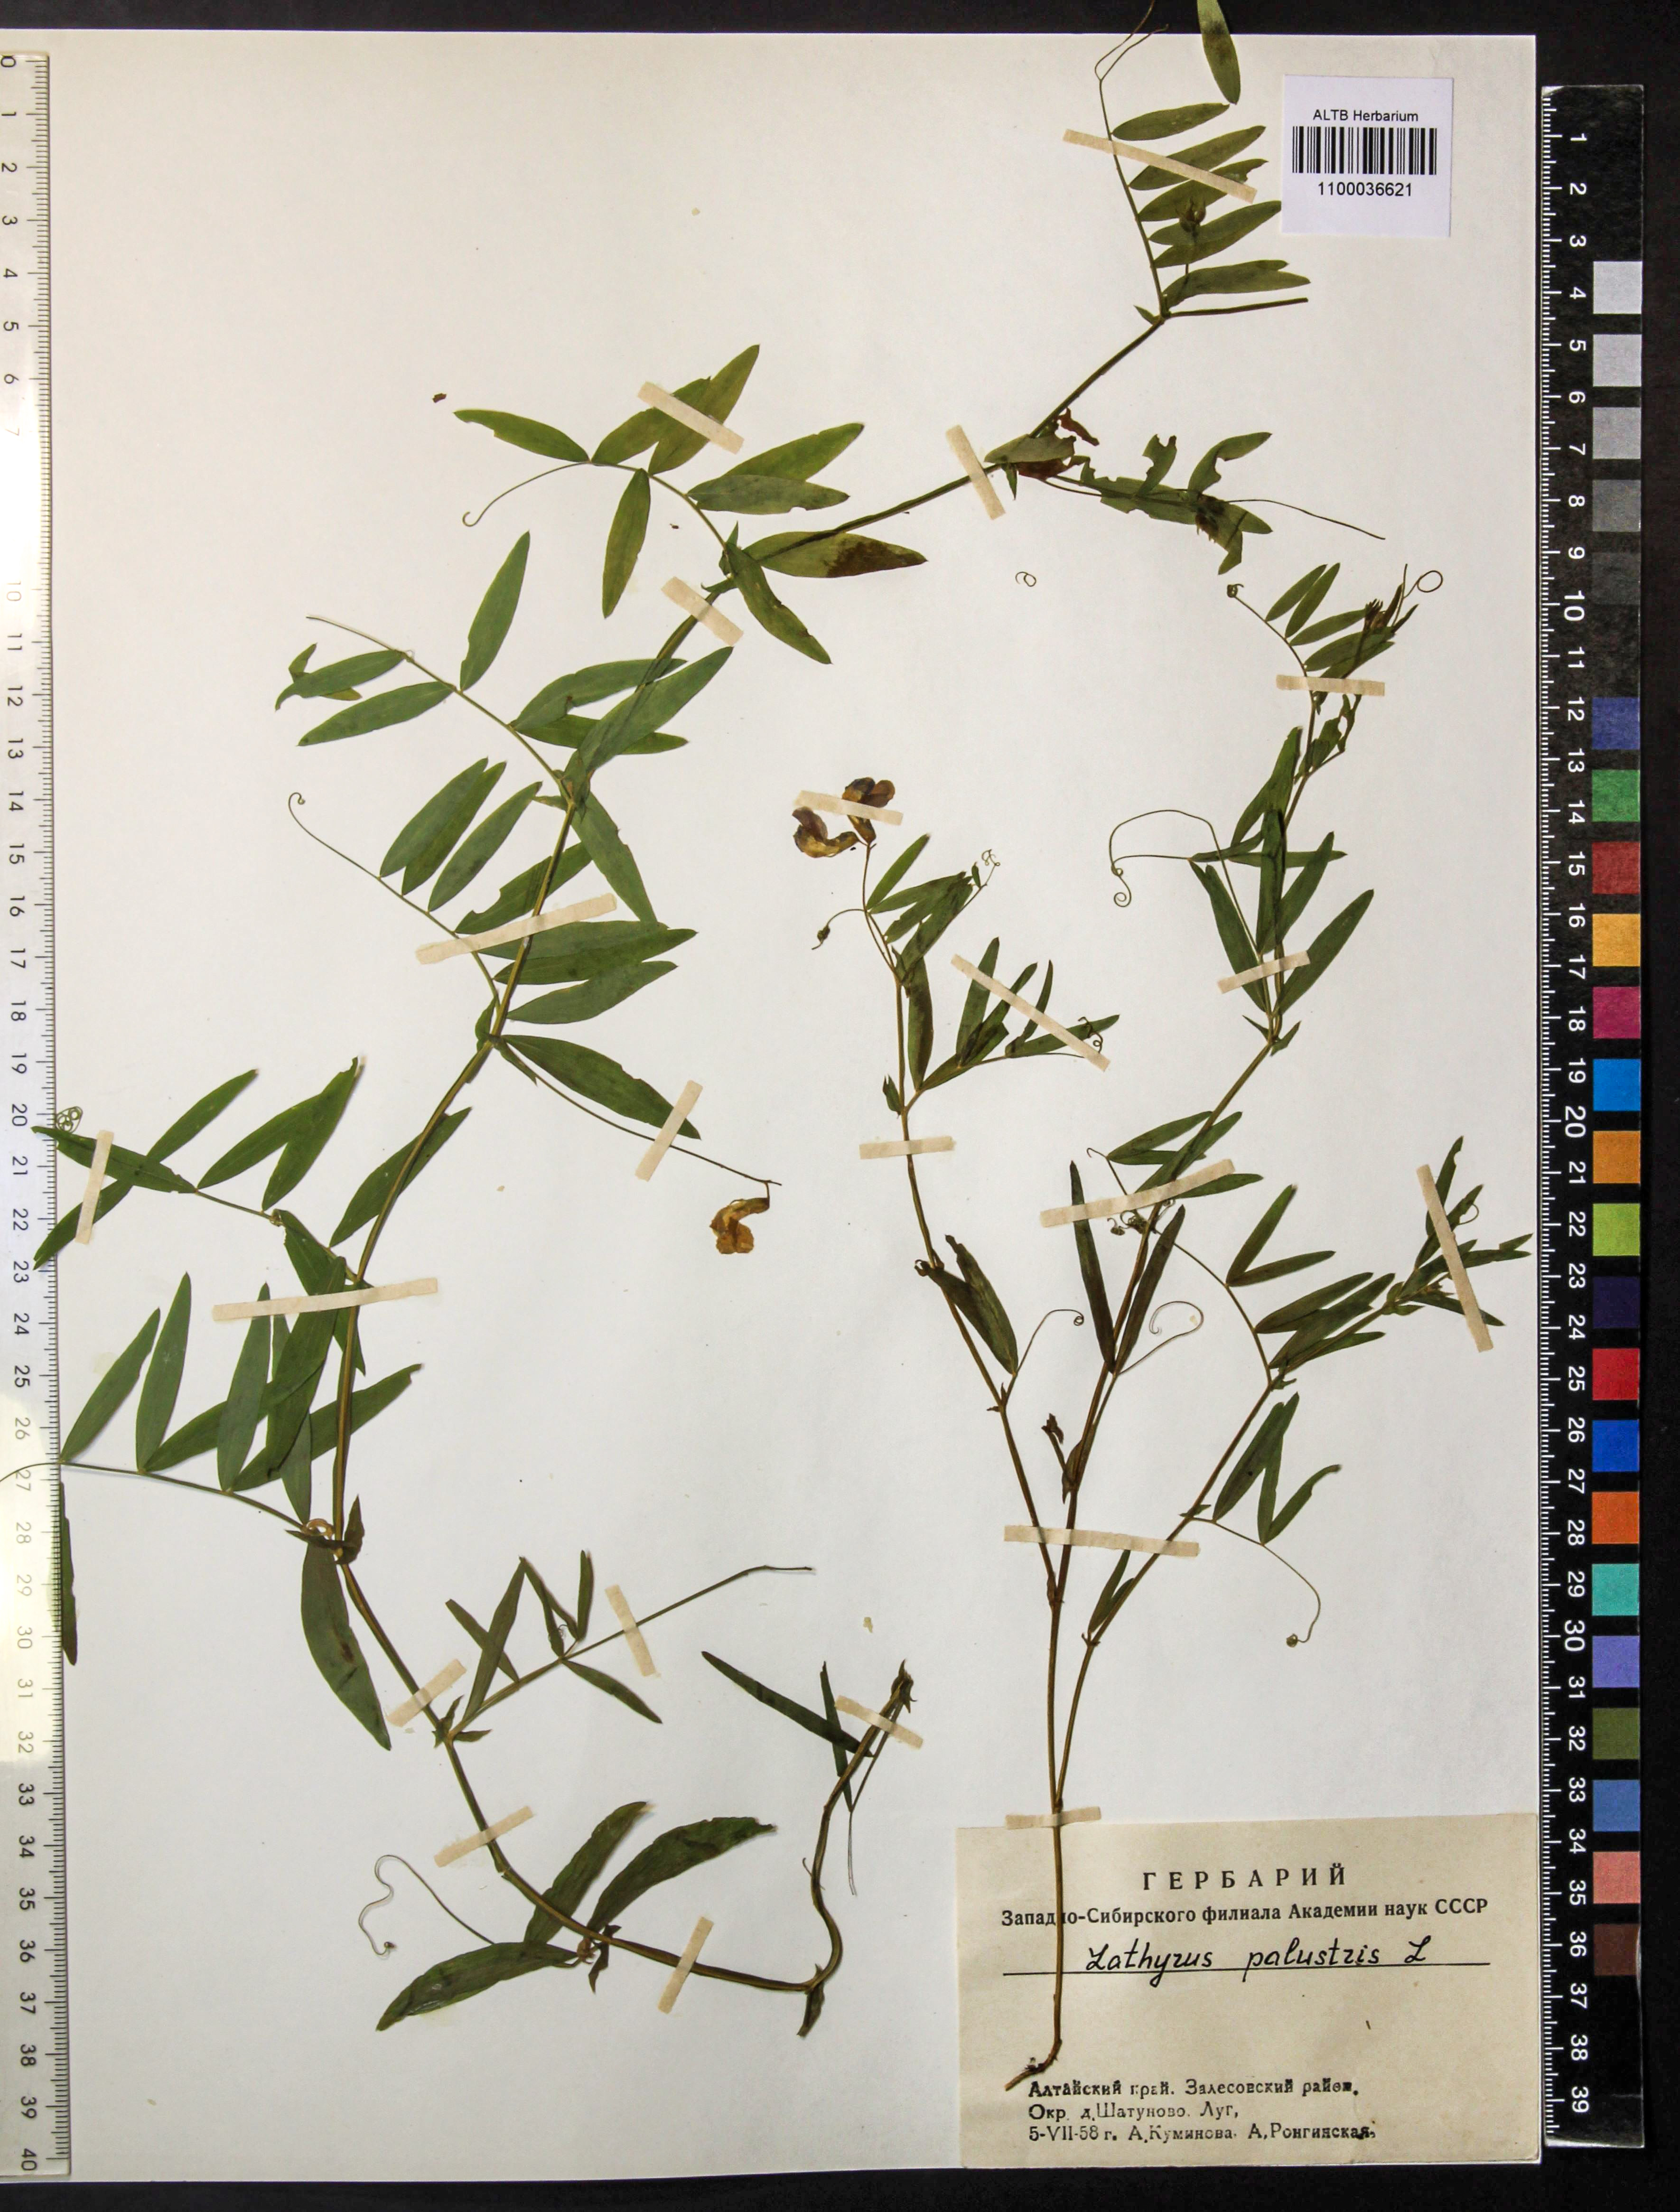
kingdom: Plantae
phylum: Tracheophyta
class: Magnoliopsida
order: Fabales
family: Fabaceae
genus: Lathyrus
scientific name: Lathyrus palustris
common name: Marsh pea
